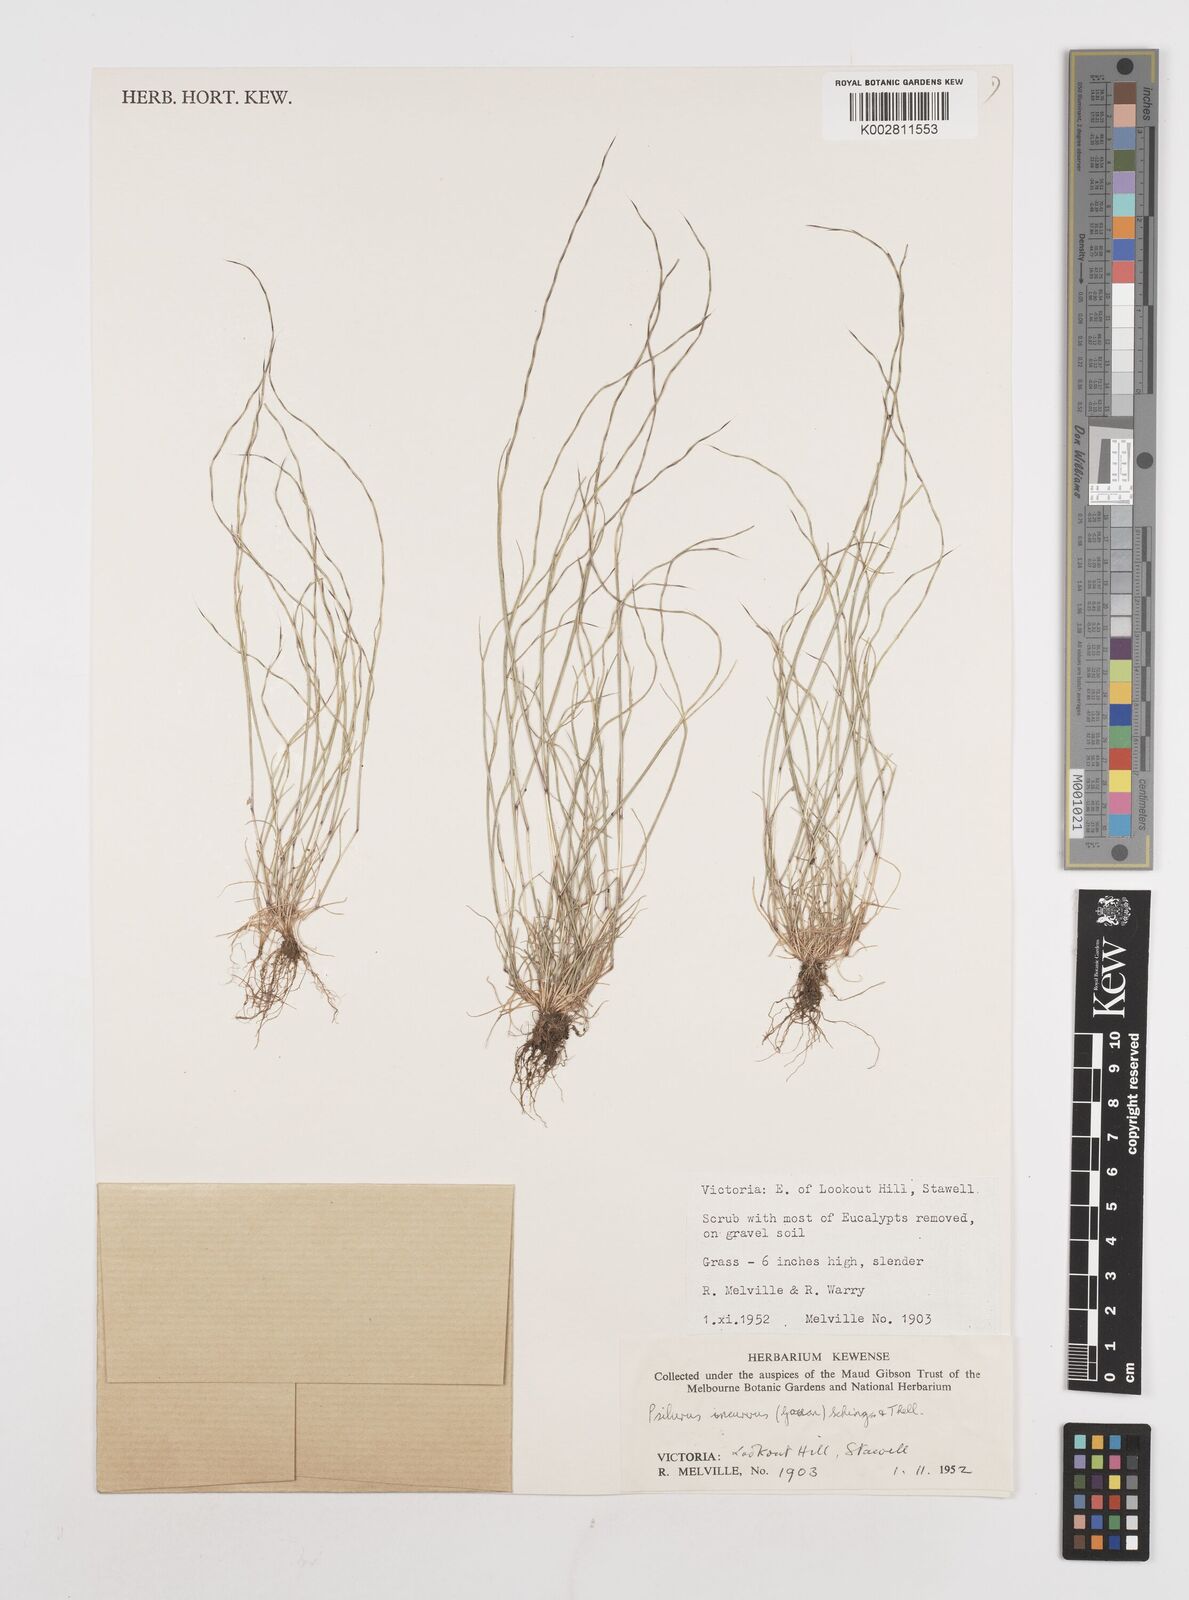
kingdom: Plantae
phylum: Tracheophyta
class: Liliopsida
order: Poales
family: Poaceae
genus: Festuca
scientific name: Festuca incurva
